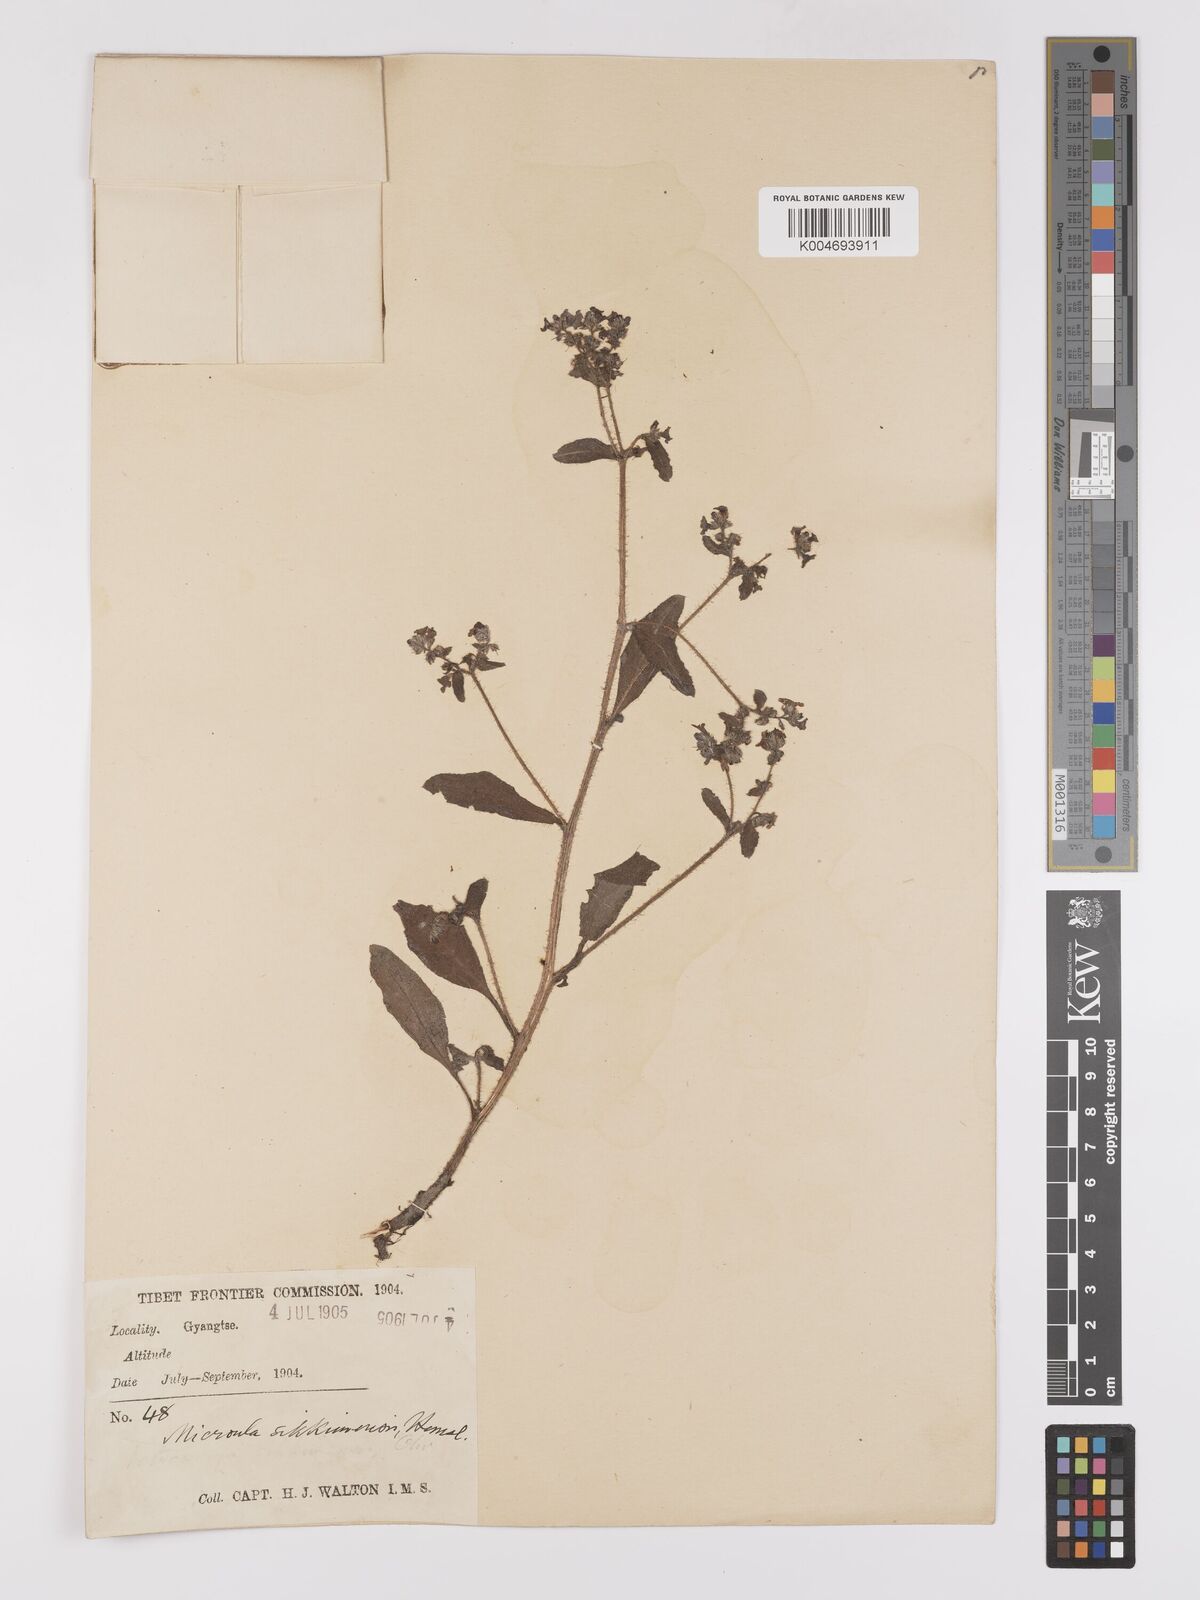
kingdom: Plantae
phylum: Tracheophyta
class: Magnoliopsida
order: Boraginales
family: Boraginaceae
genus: Microula
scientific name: Microula sikkimensis
